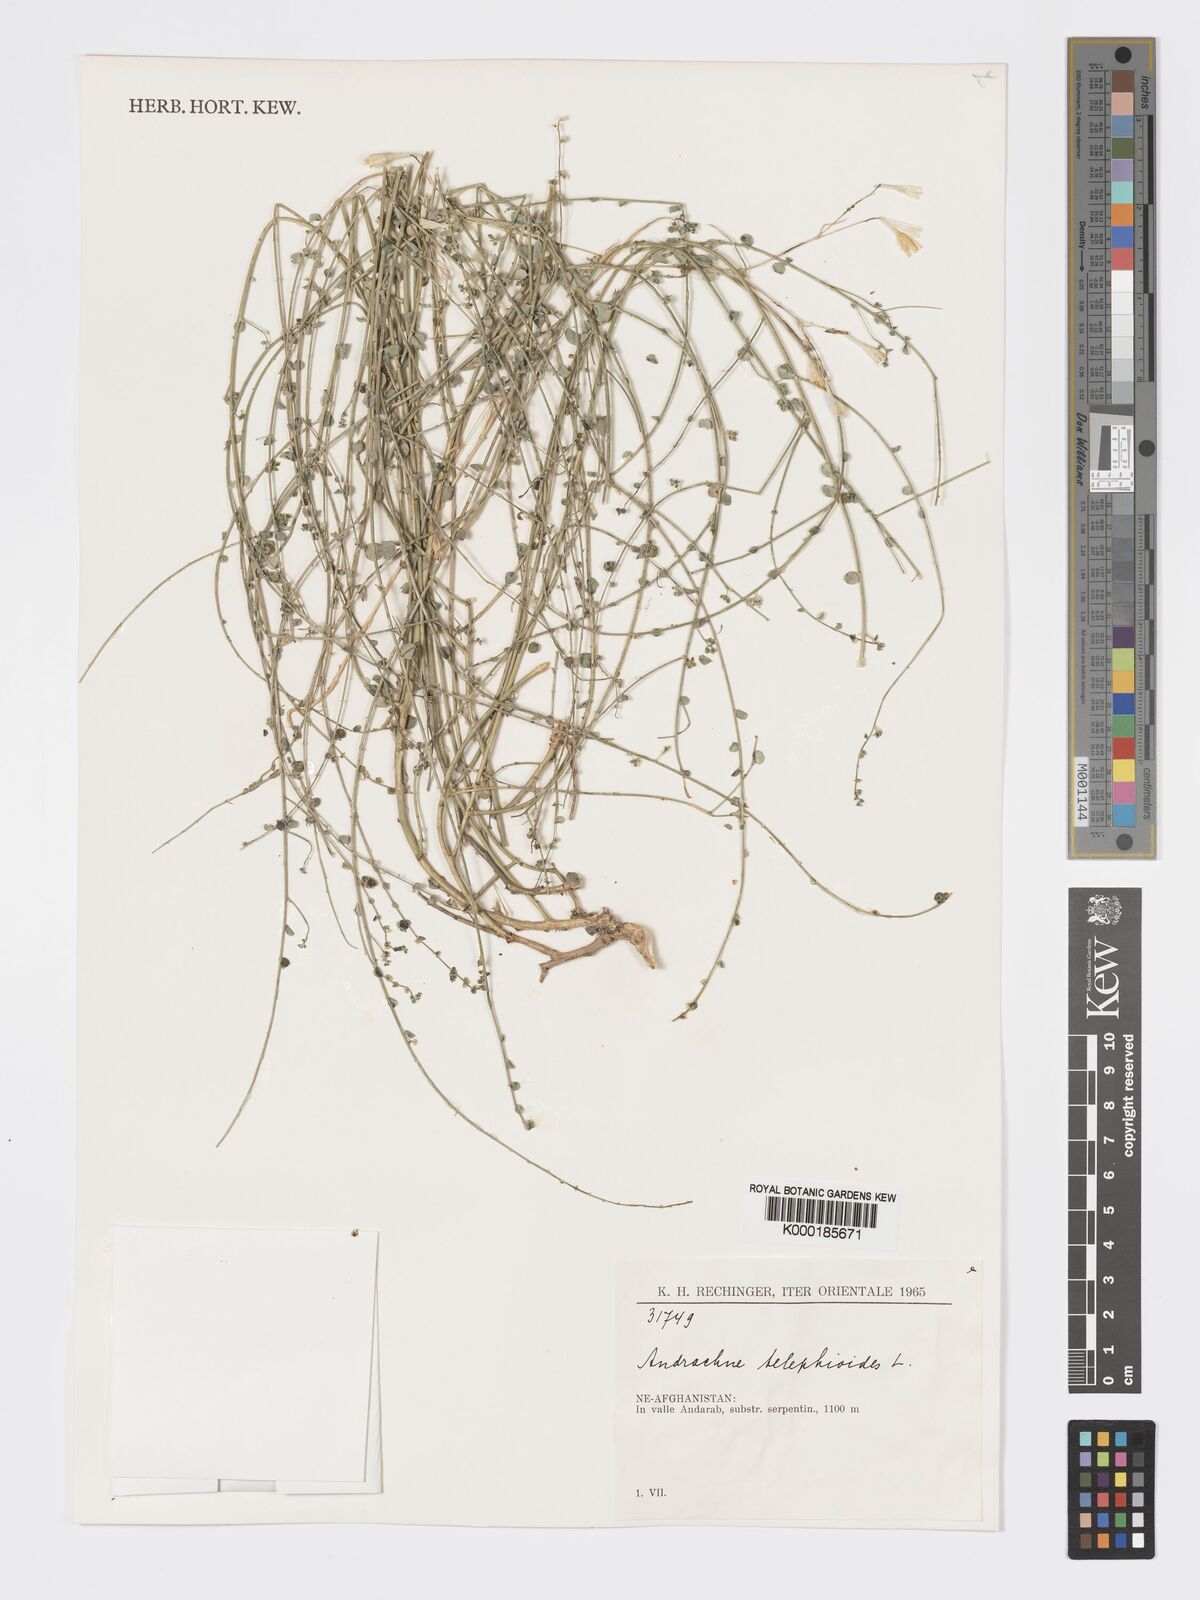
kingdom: Plantae
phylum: Tracheophyta
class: Magnoliopsida
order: Malpighiales
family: Phyllanthaceae
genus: Andrachne
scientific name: Andrachne telephioides
